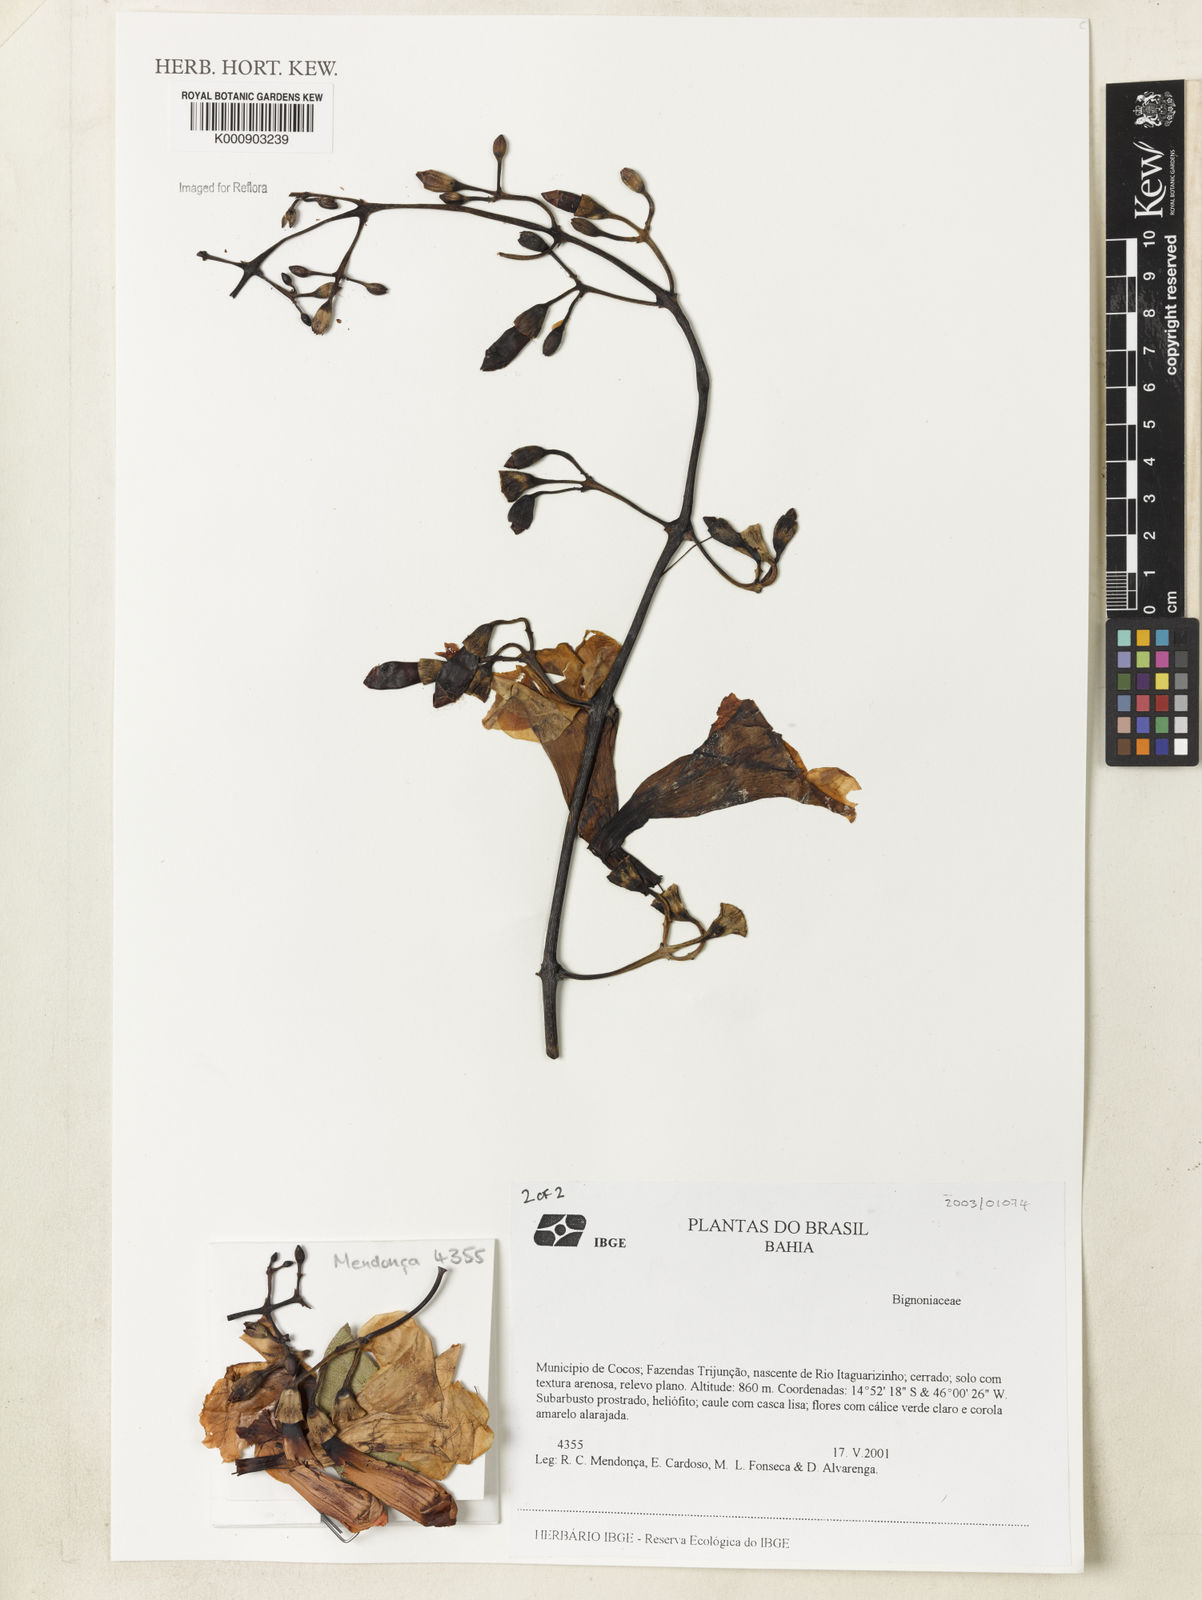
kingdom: Plantae
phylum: Tracheophyta
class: Magnoliopsida
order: Lamiales
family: Bignoniaceae
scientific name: Bignoniaceae
